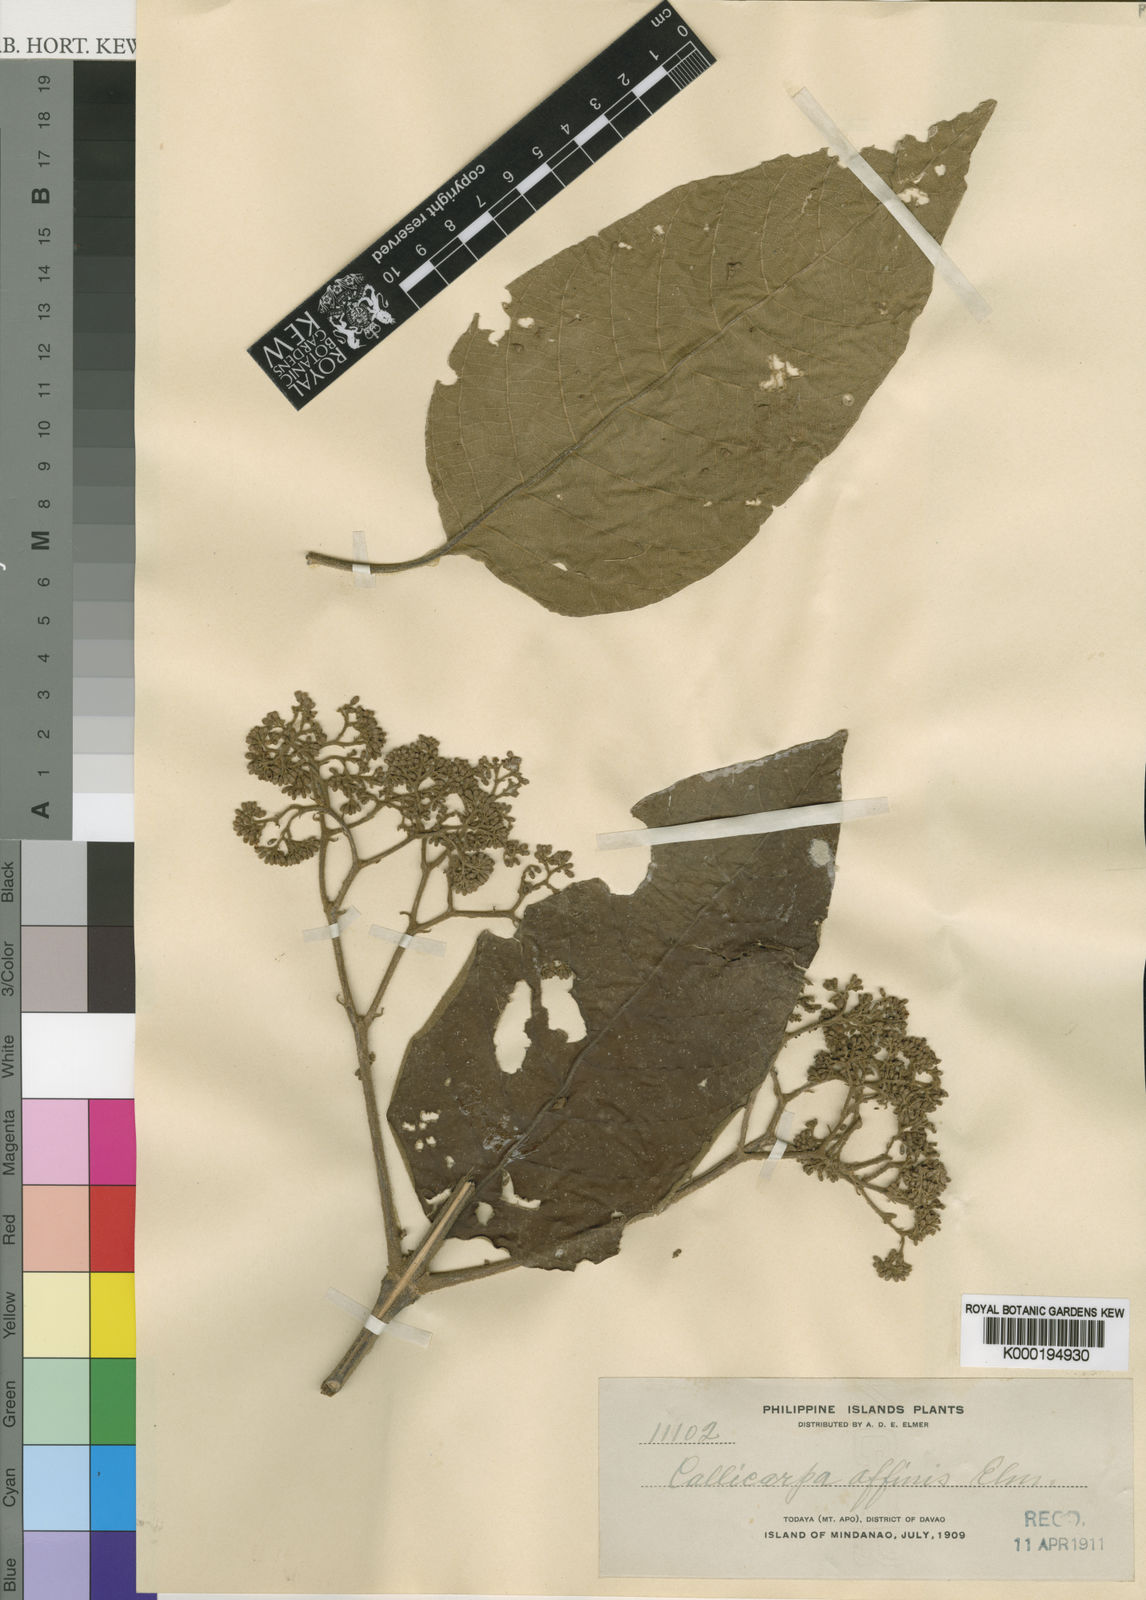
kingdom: Plantae
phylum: Tracheophyta
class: Magnoliopsida
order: Lamiales
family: Lamiaceae
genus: Callicarpa
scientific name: Callicarpa pentandra
